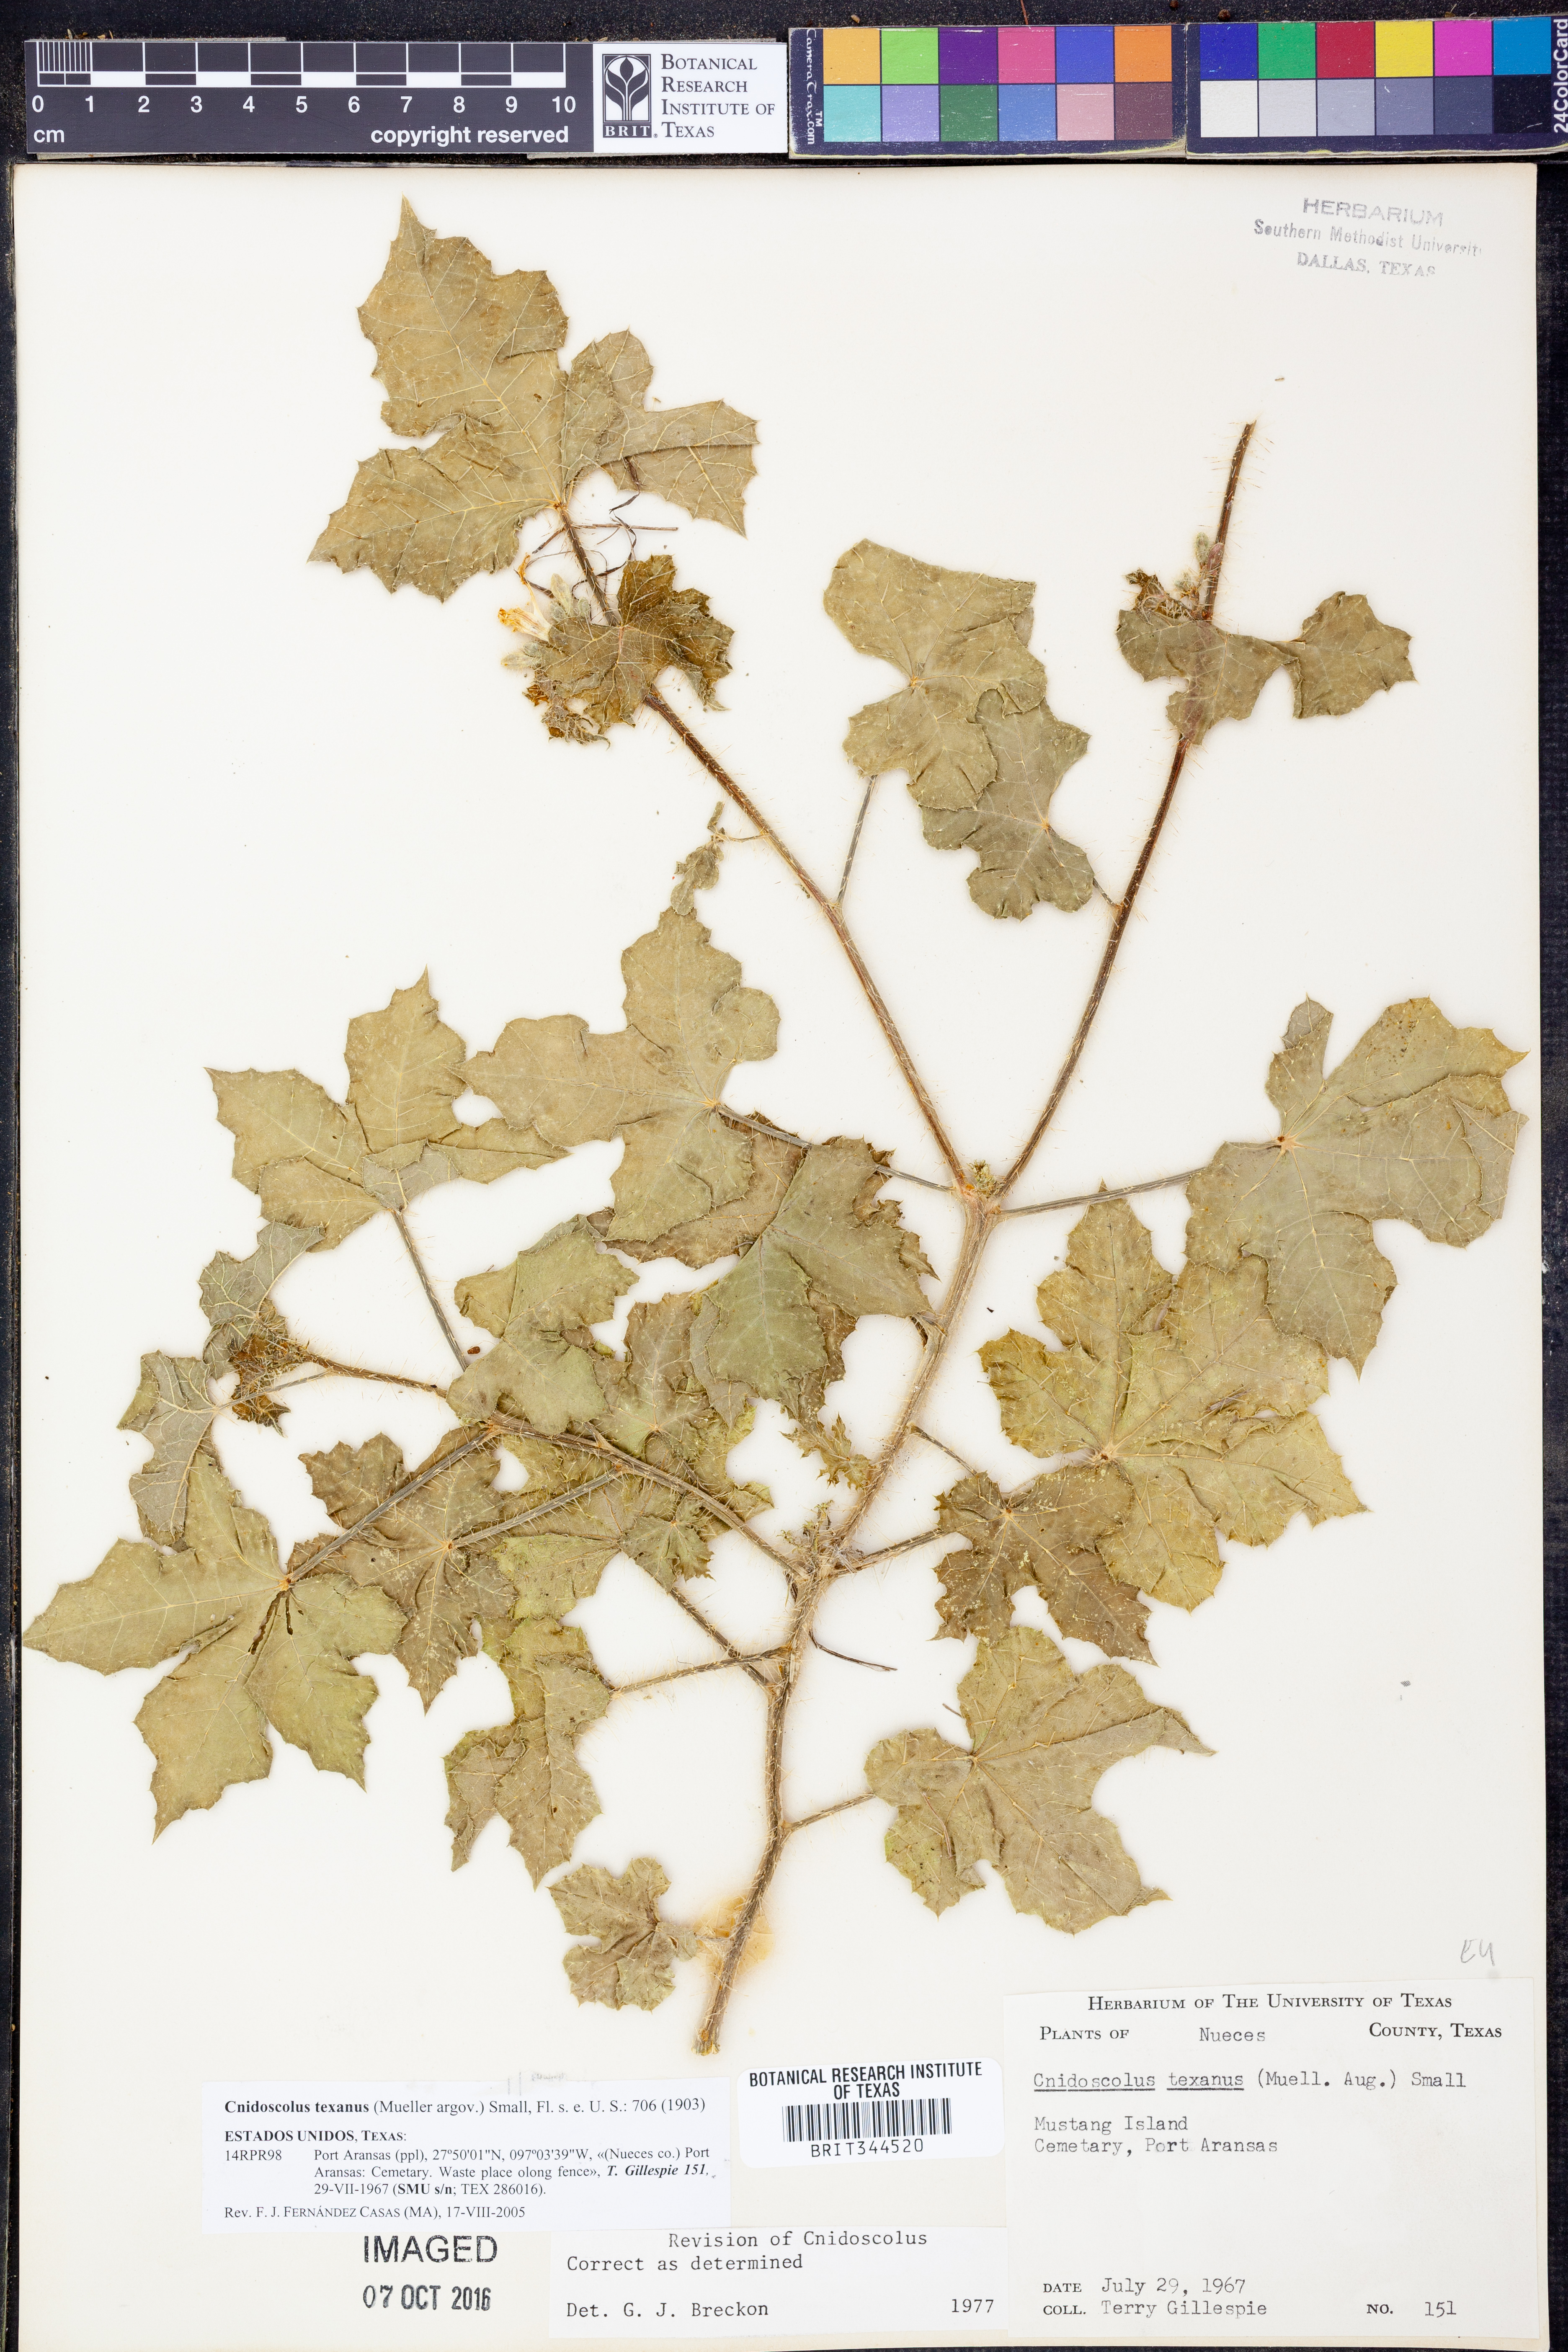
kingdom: Plantae
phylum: Tracheophyta
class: Magnoliopsida
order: Malpighiales
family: Euphorbiaceae
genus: Cnidoscolus
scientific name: Cnidoscolus texanus
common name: Texas bull-nettle
